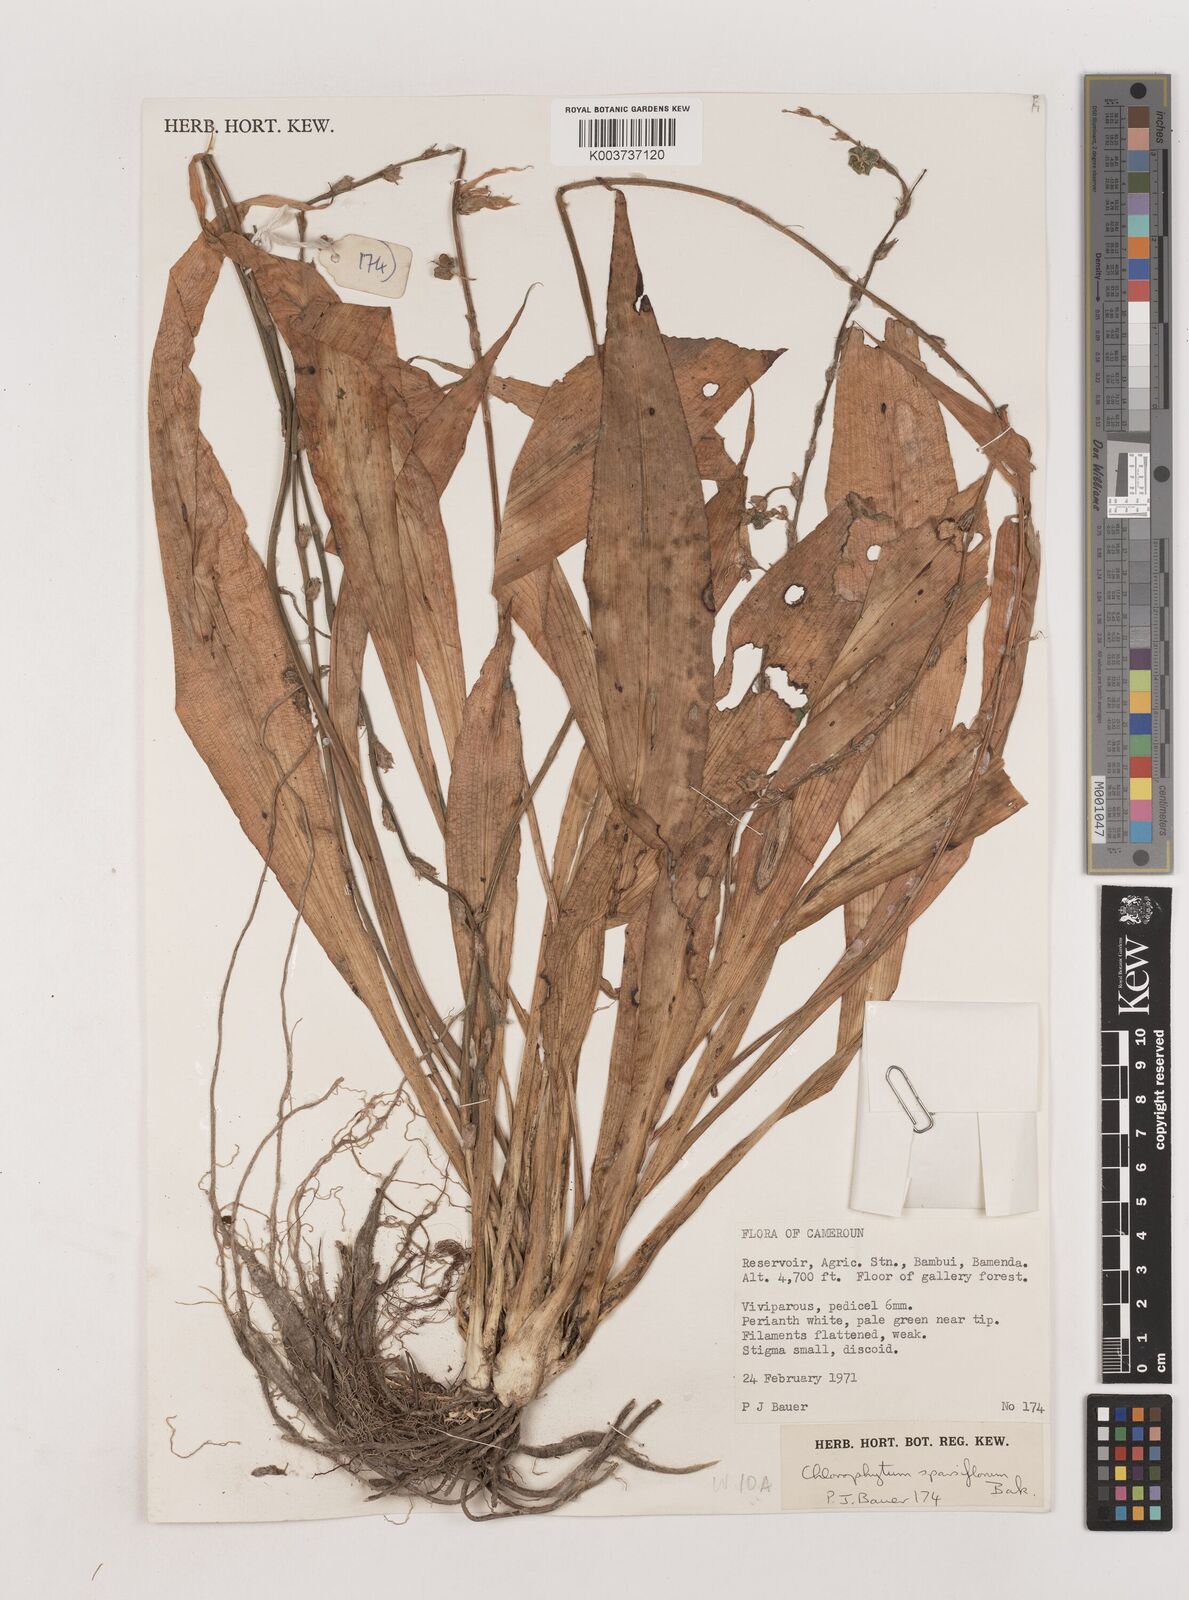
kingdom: Plantae
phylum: Tracheophyta
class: Liliopsida
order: Asparagales
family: Asparagaceae
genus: Chlorophytum
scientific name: Chlorophytum sparsiflorum
